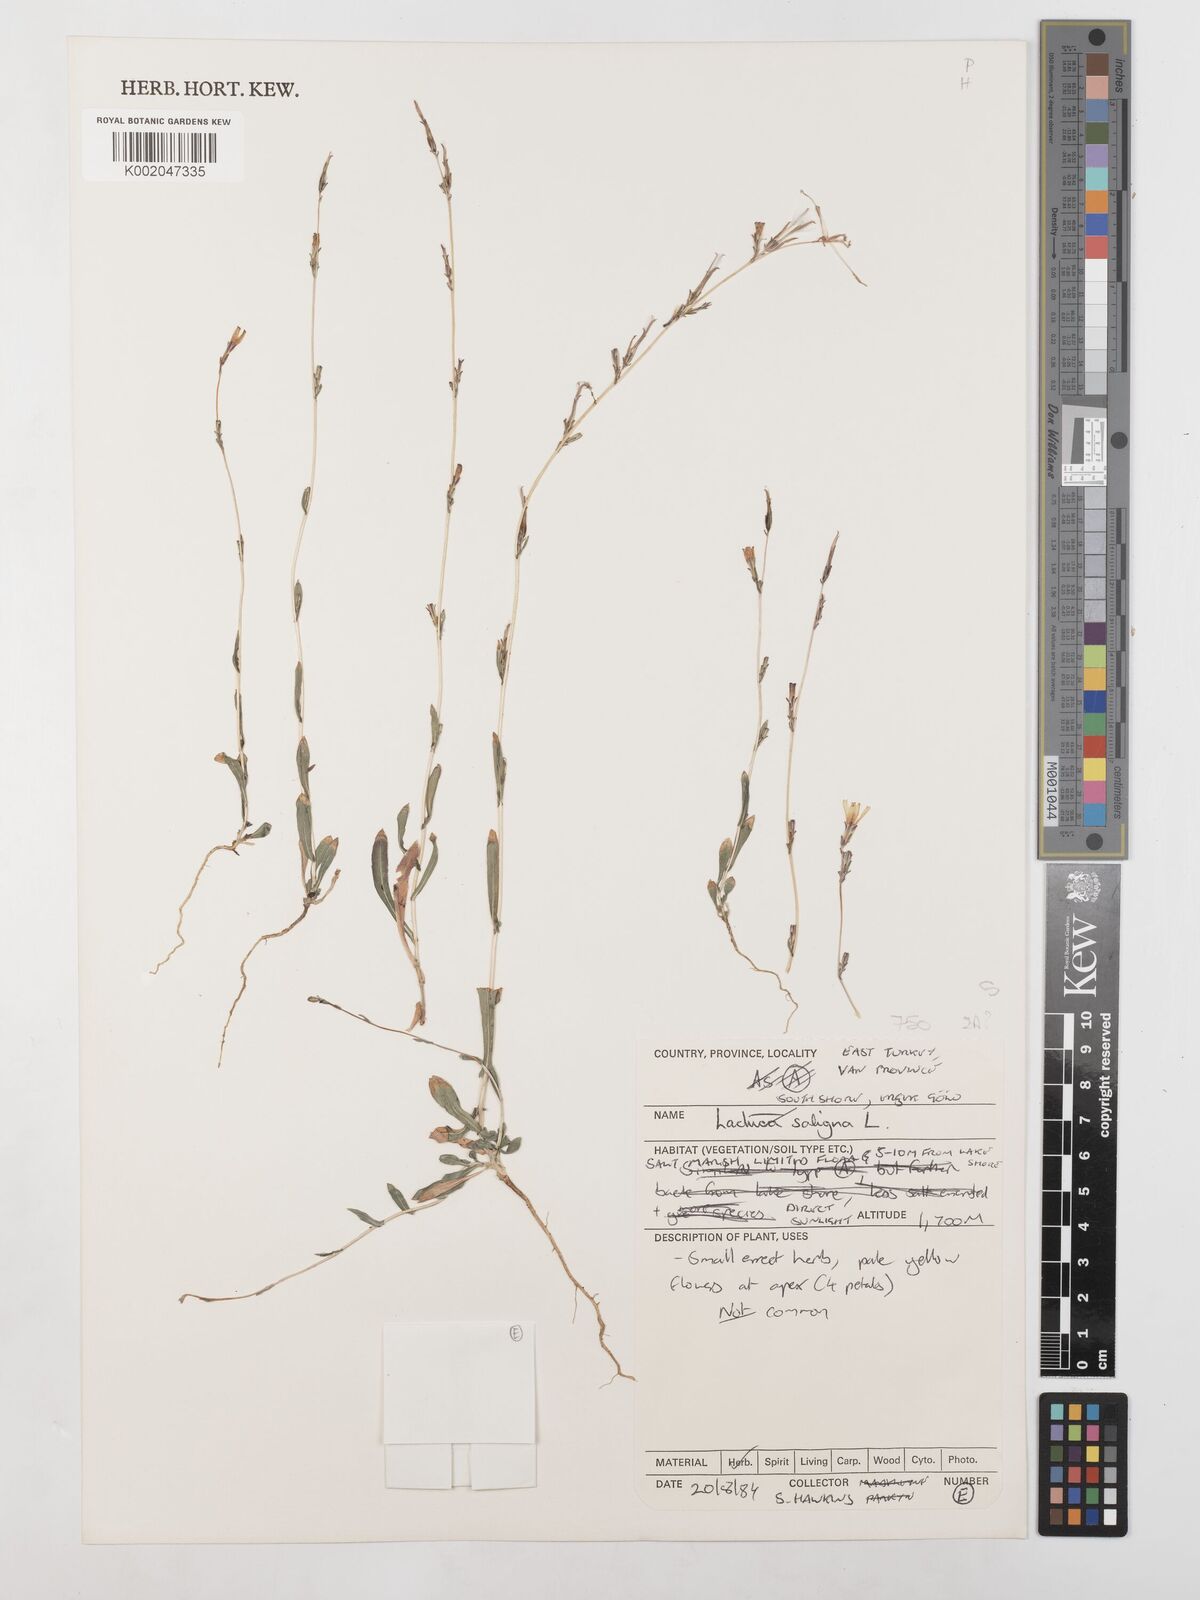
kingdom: Plantae
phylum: Tracheophyta
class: Magnoliopsida
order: Asterales
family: Asteraceae
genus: Lactuca
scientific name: Lactuca saligna
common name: Wild lettuce
